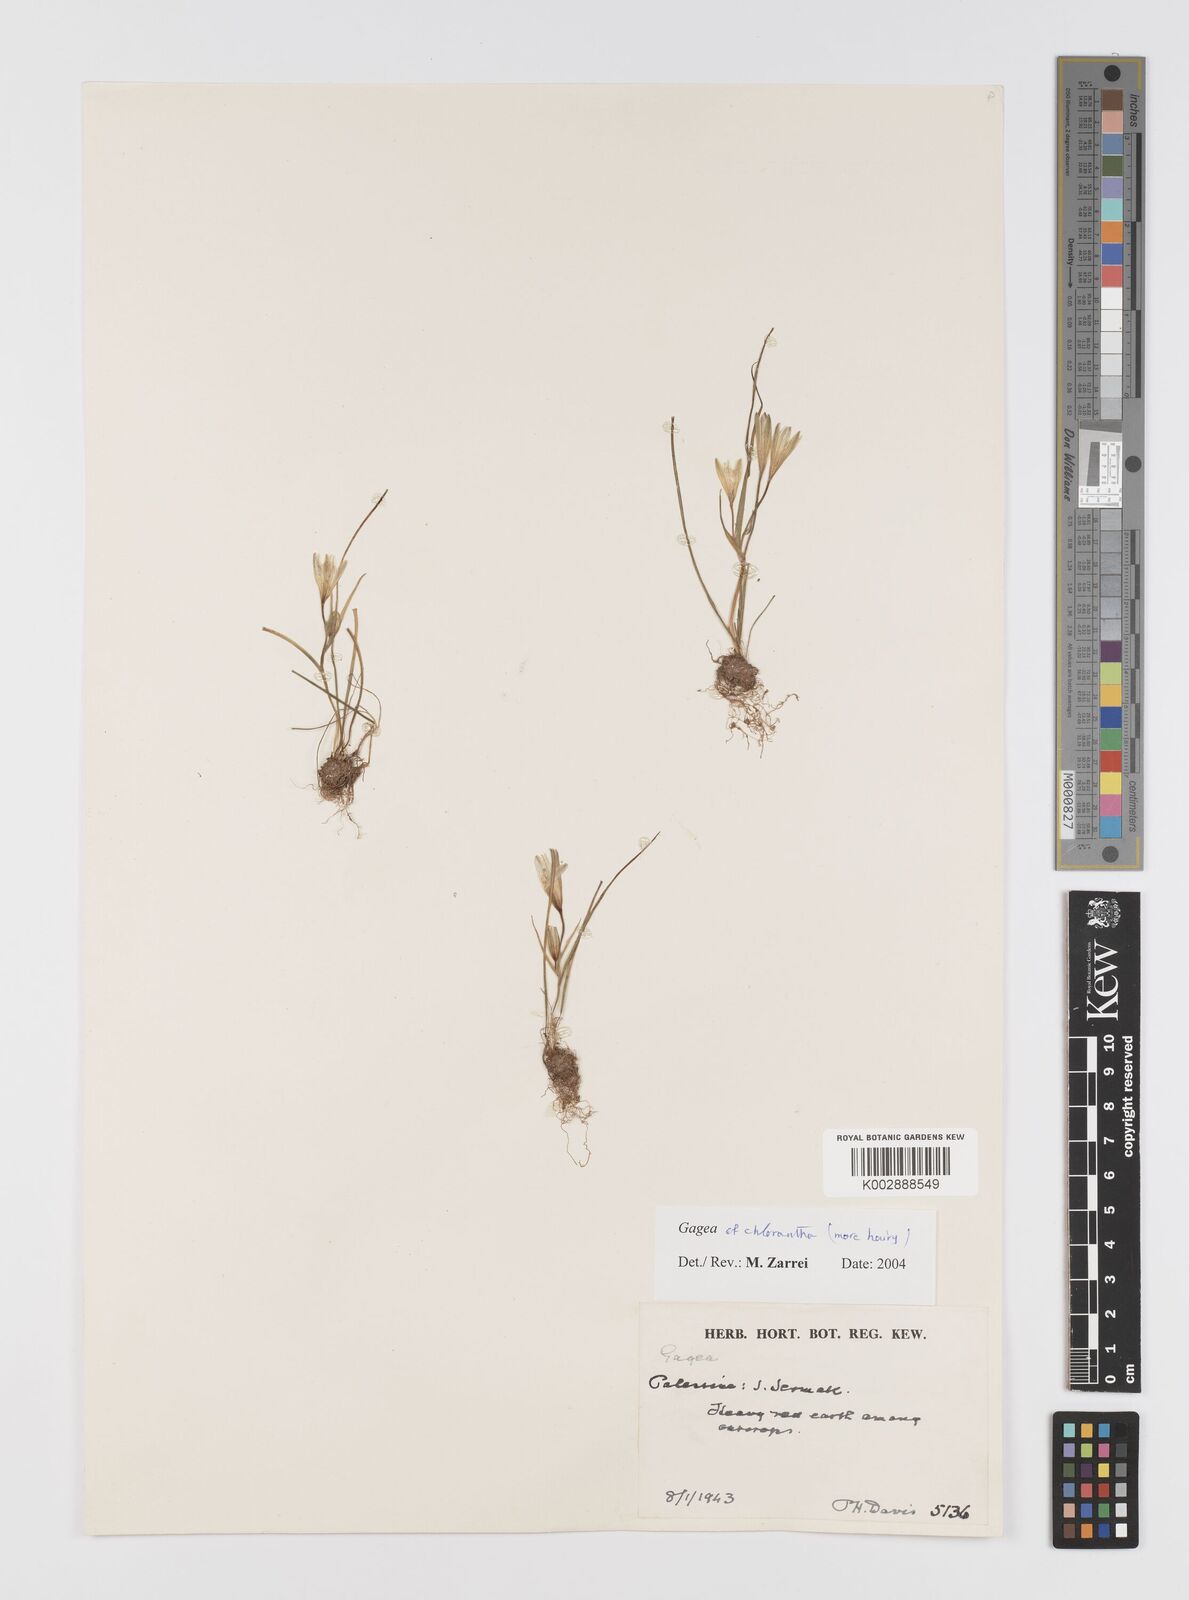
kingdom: Plantae
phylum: Tracheophyta
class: Liliopsida
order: Liliales
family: Liliaceae
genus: Gagea
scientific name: Gagea chlorantha
